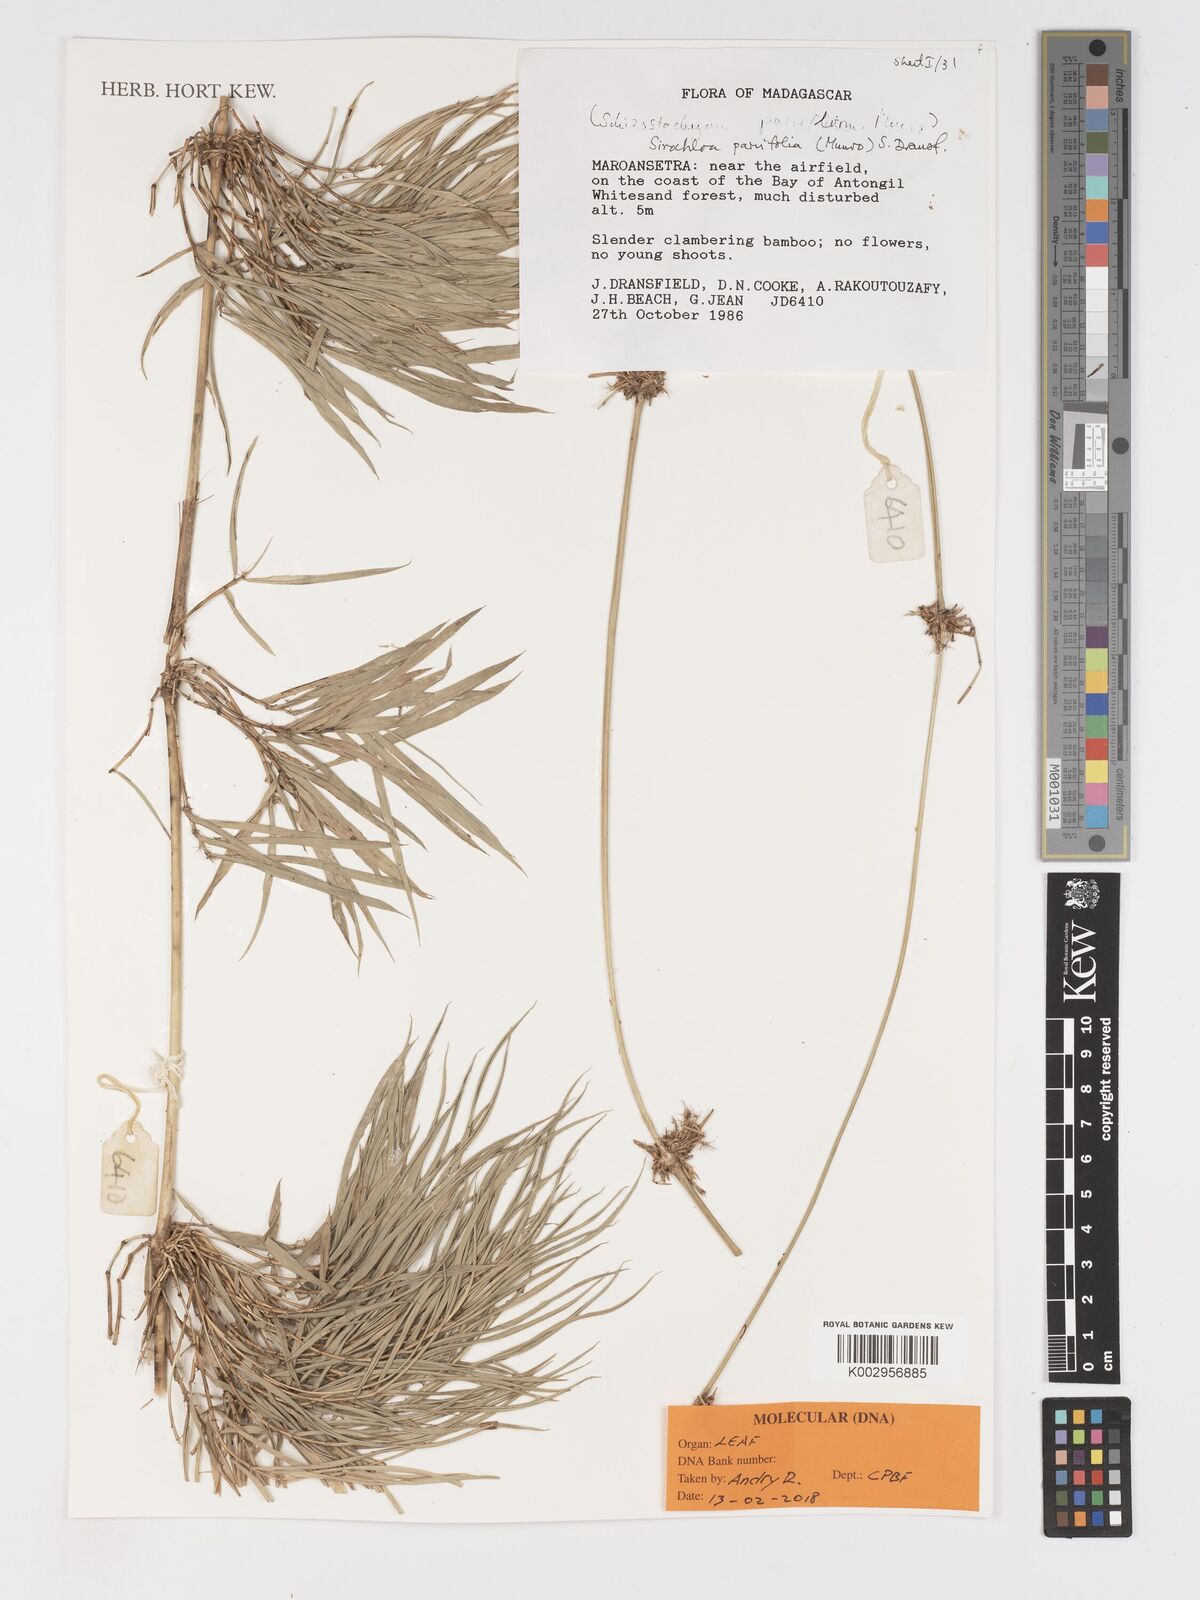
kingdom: Plantae
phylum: Tracheophyta
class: Liliopsida
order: Poales
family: Poaceae
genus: Sirochloa
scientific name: Sirochloa parvifolia
